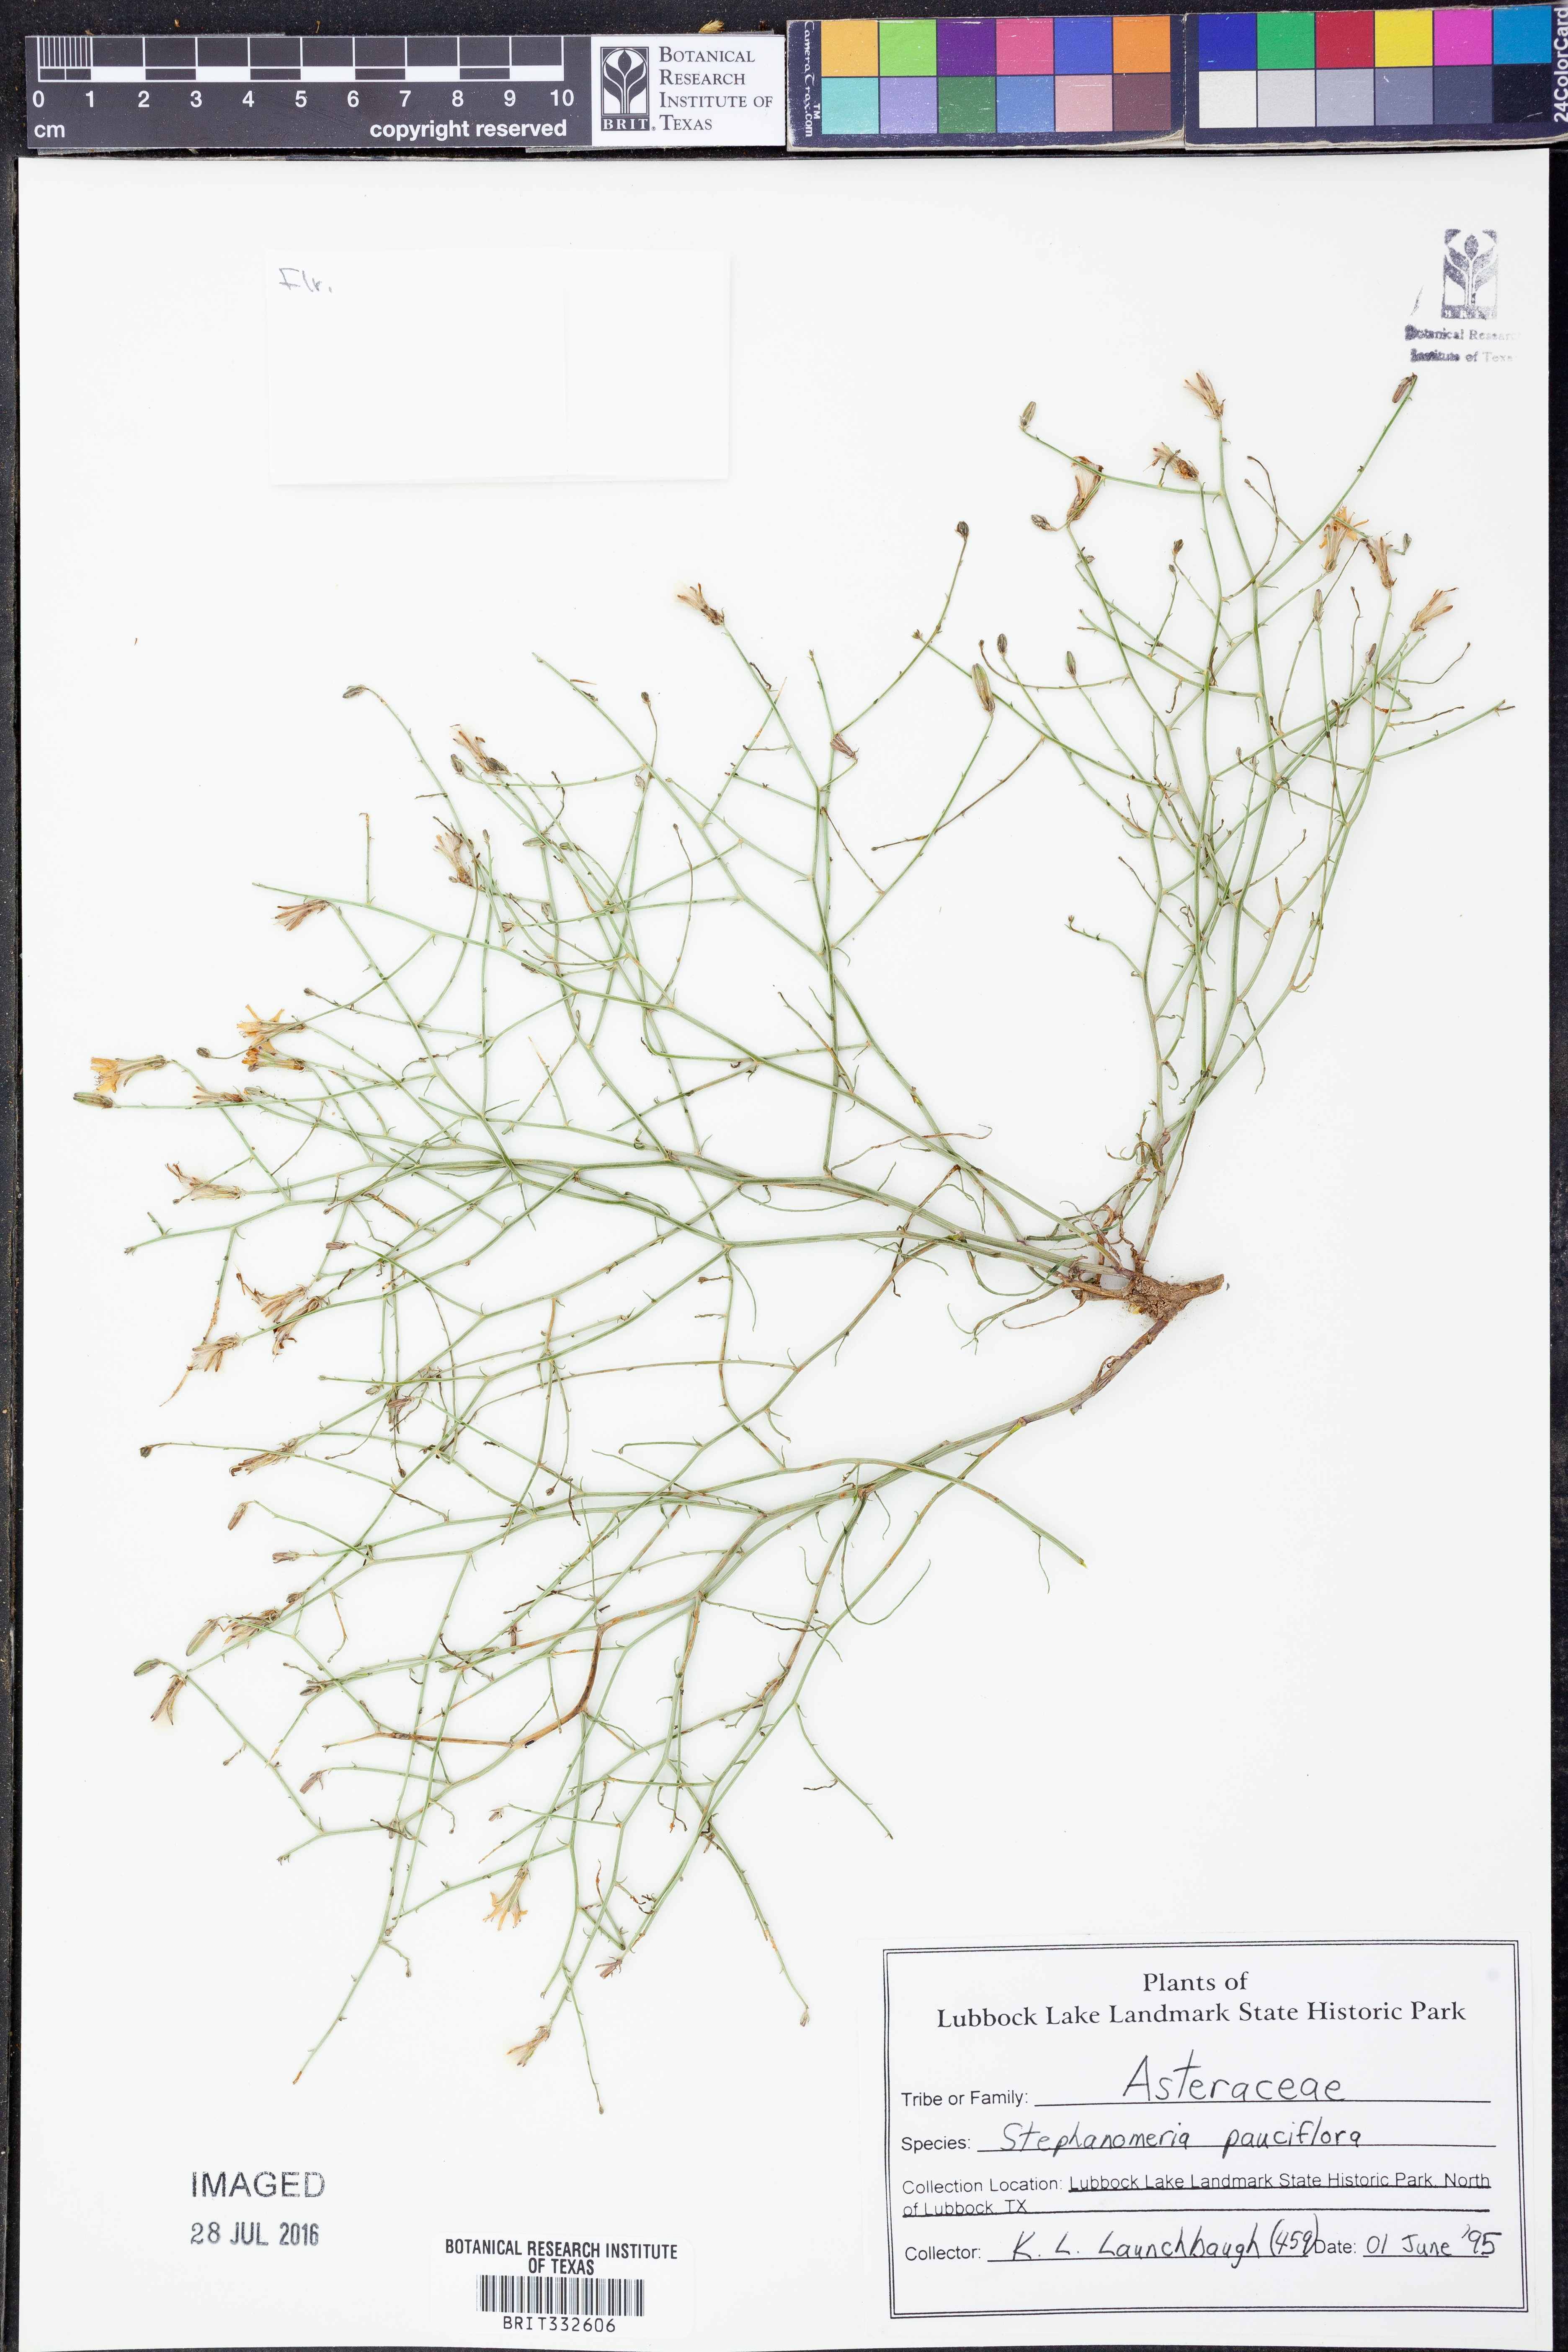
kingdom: Plantae
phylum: Tracheophyta
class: Magnoliopsida
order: Asterales
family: Asteraceae
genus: Stephanomeria
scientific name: Stephanomeria pauciflora
